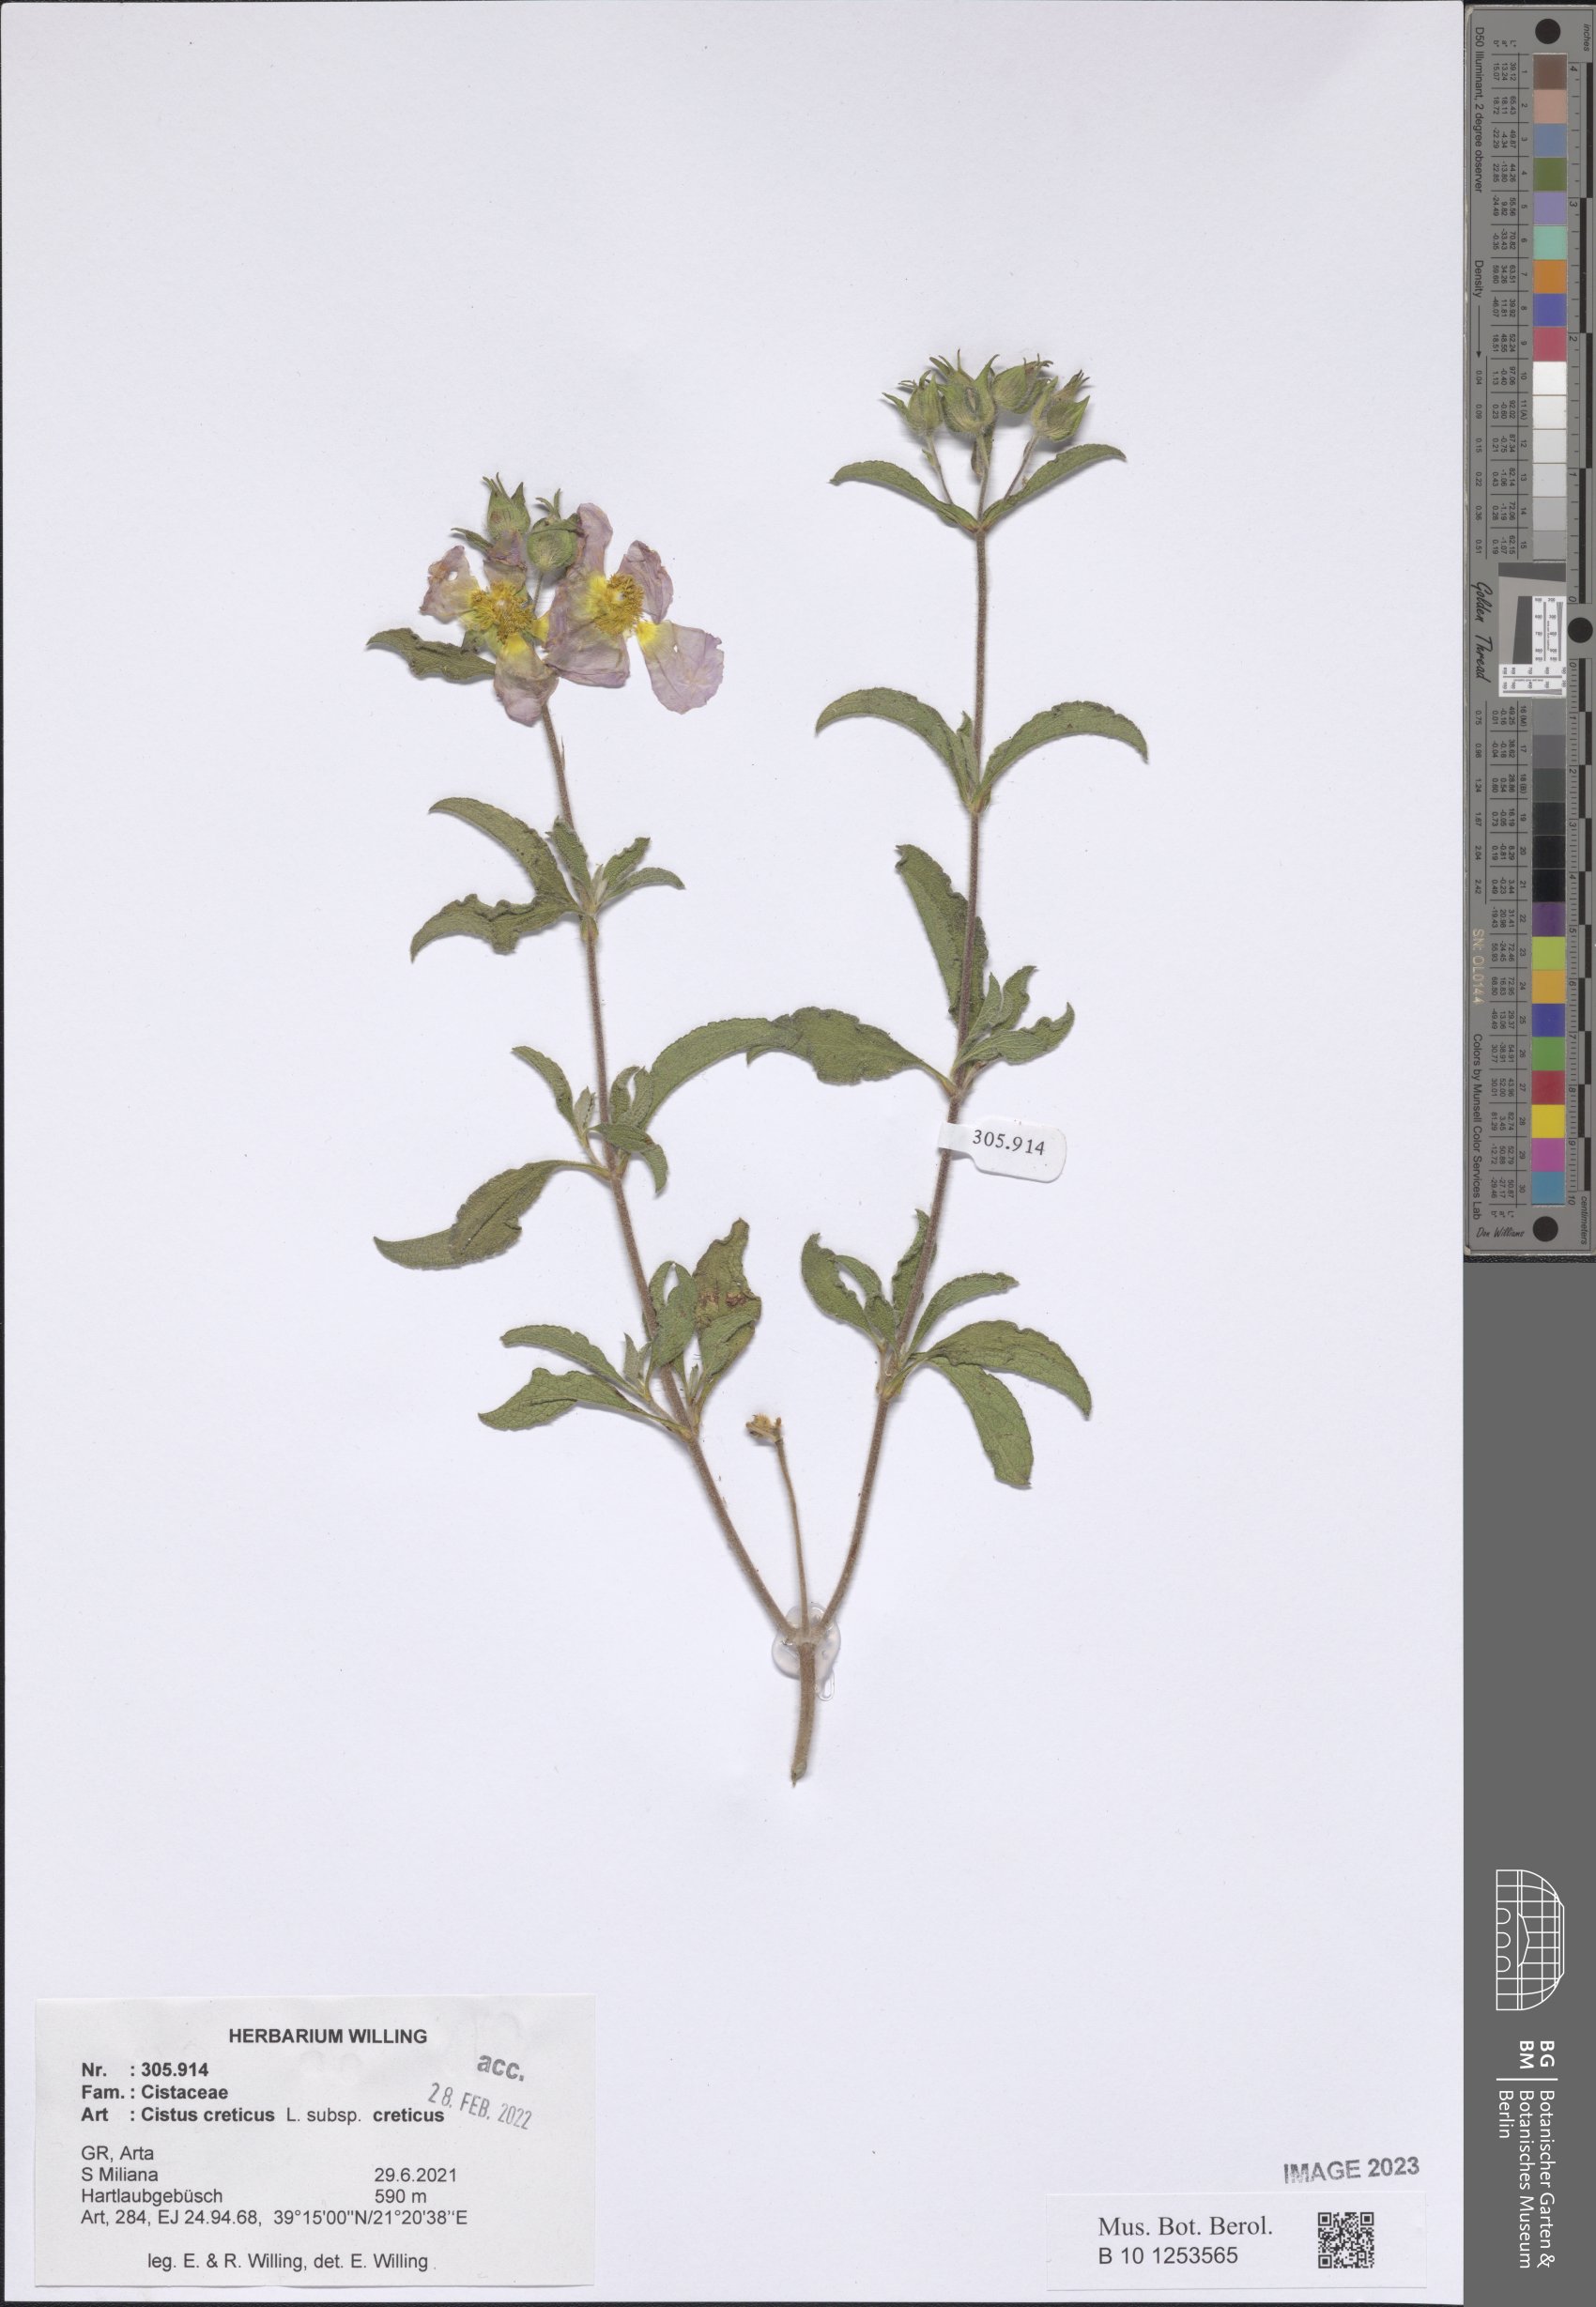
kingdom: Plantae
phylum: Tracheophyta
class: Magnoliopsida
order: Malvales
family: Cistaceae
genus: Cistus
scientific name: Cistus creticus
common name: Cretan rockrose
